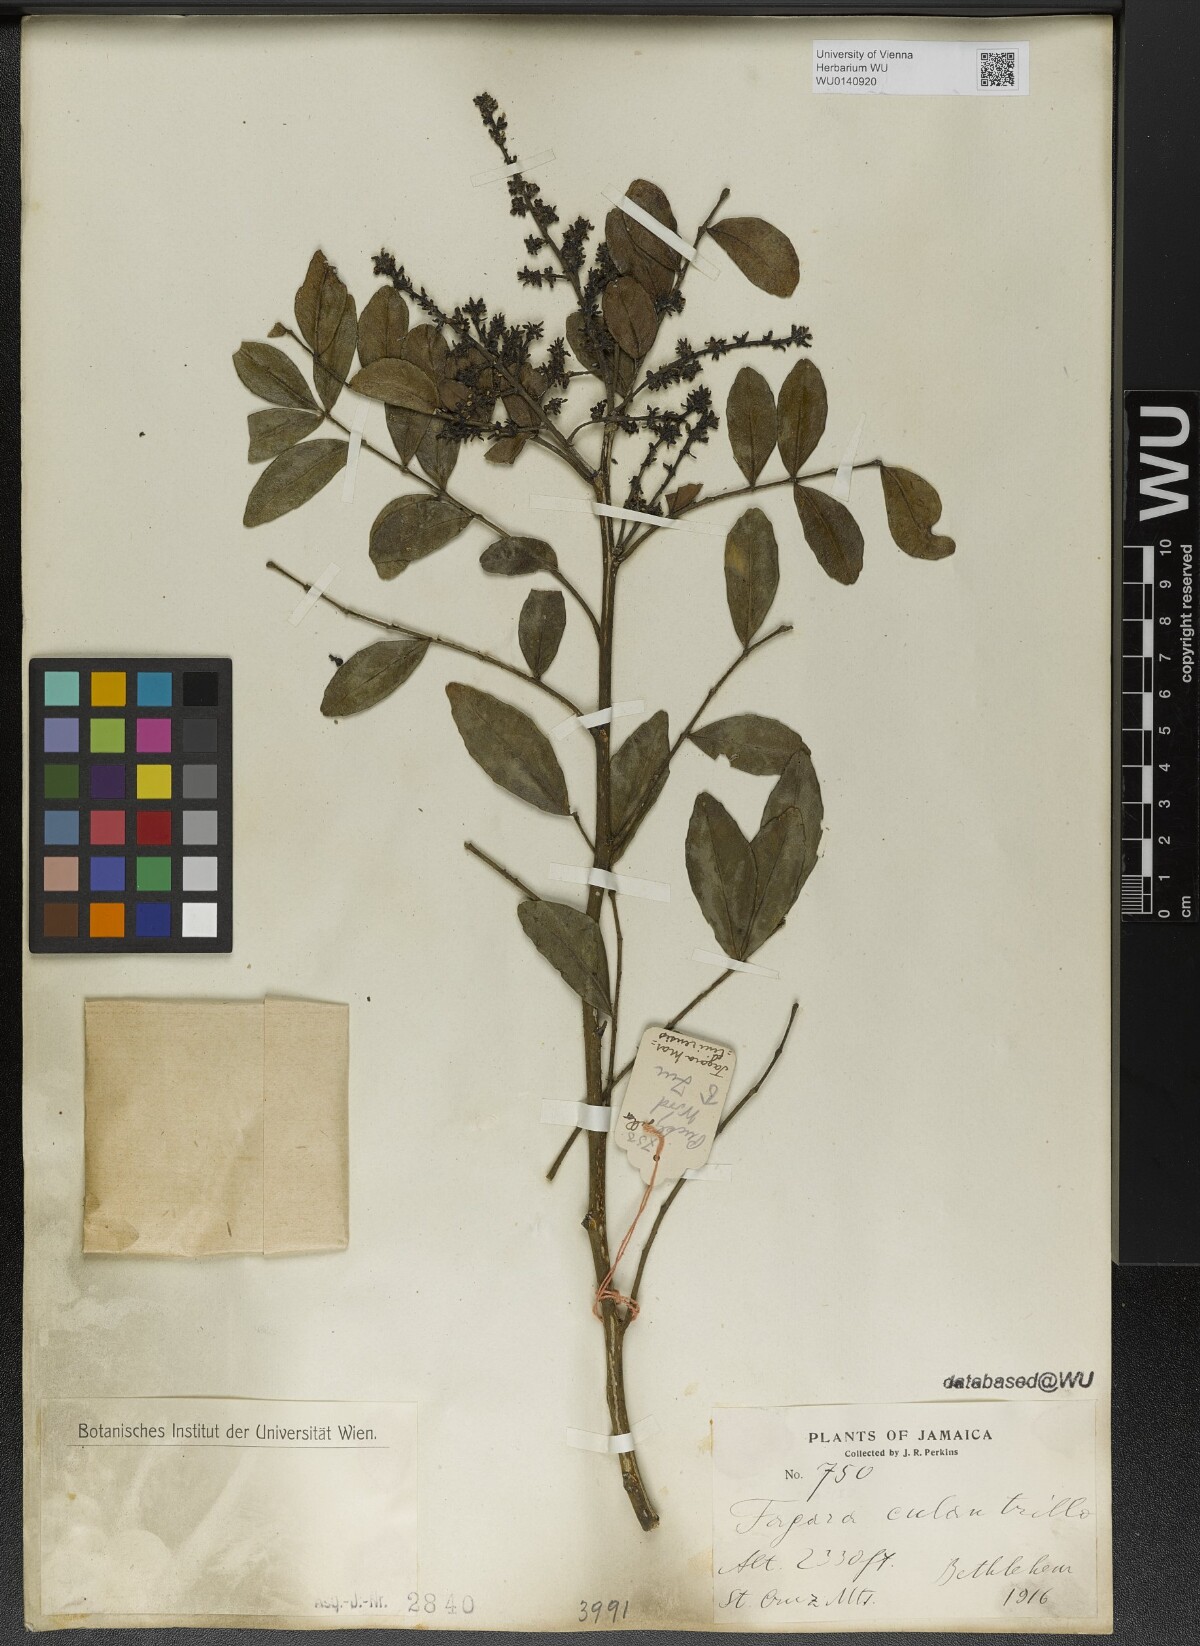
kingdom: Plantae
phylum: Tracheophyta
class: Magnoliopsida
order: Sapindales
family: Rutaceae
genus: Zanthoxylum
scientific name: Zanthoxylum fagara
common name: Lime prickly-ash
